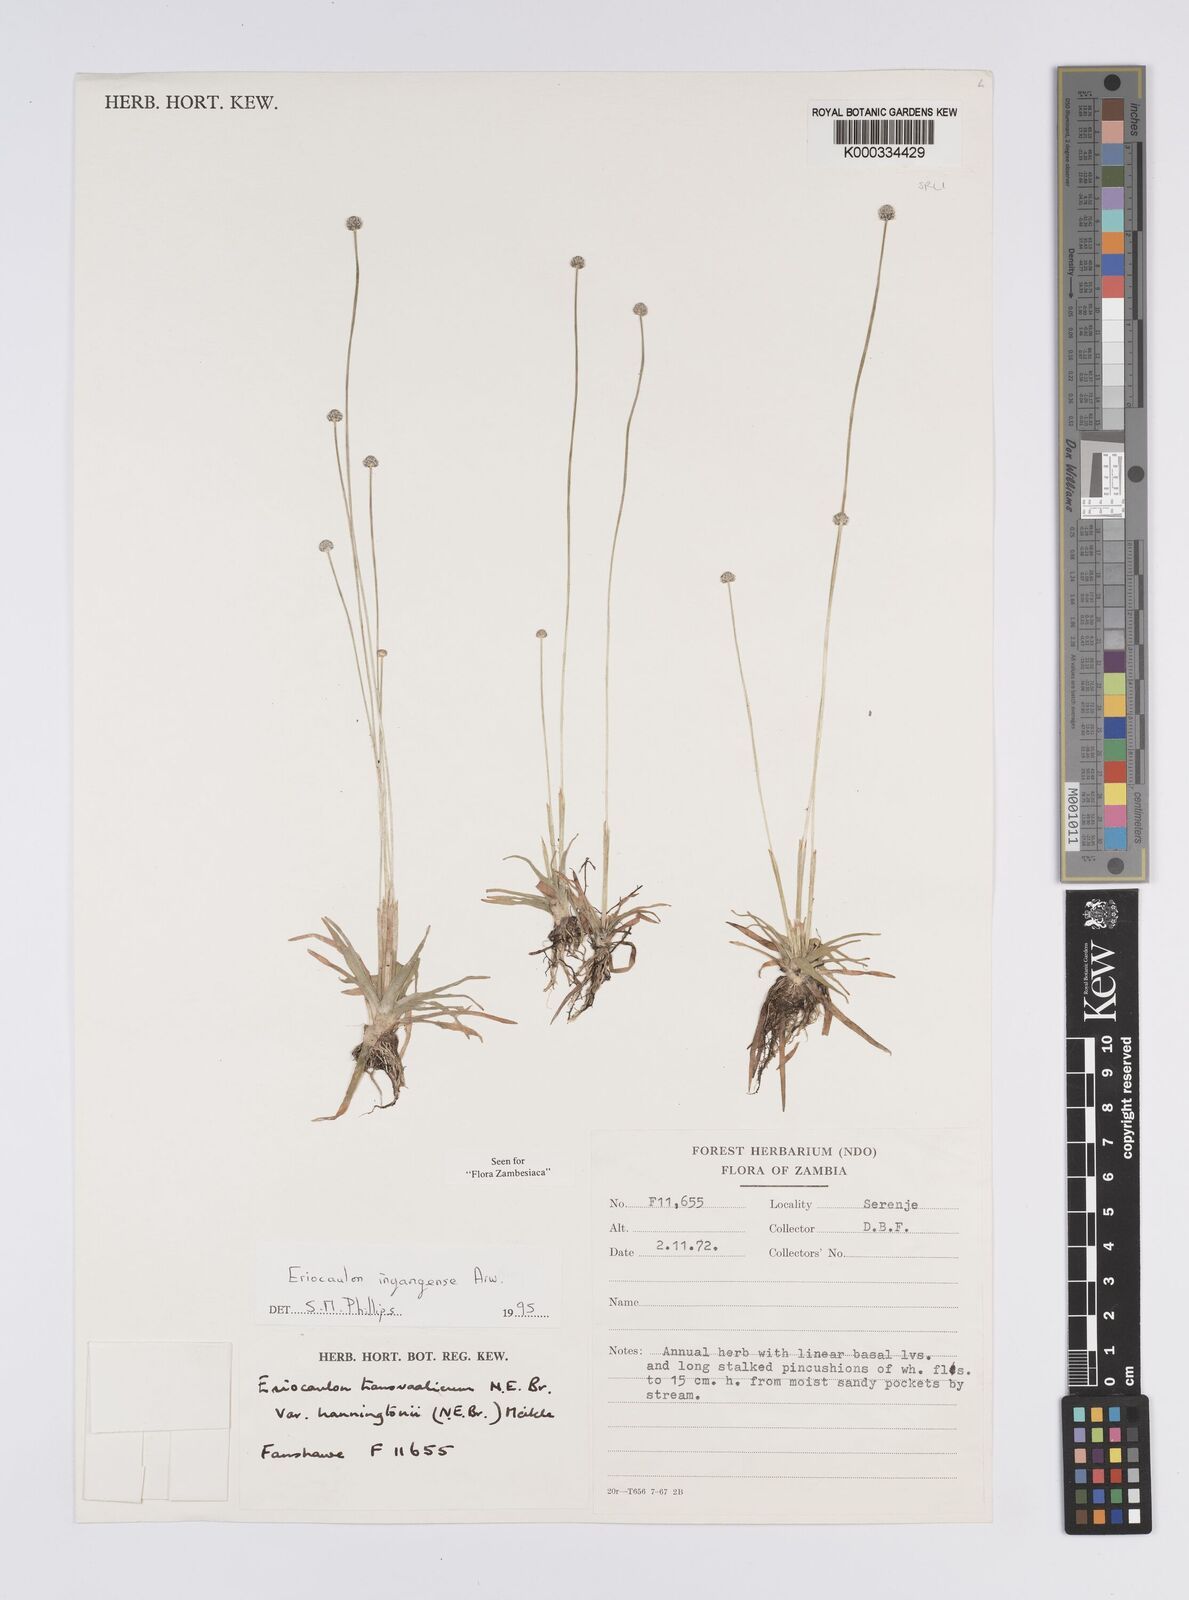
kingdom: Plantae
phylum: Tracheophyta
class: Liliopsida
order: Poales
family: Eriocaulaceae
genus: Eriocaulon
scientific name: Eriocaulon inyangense
